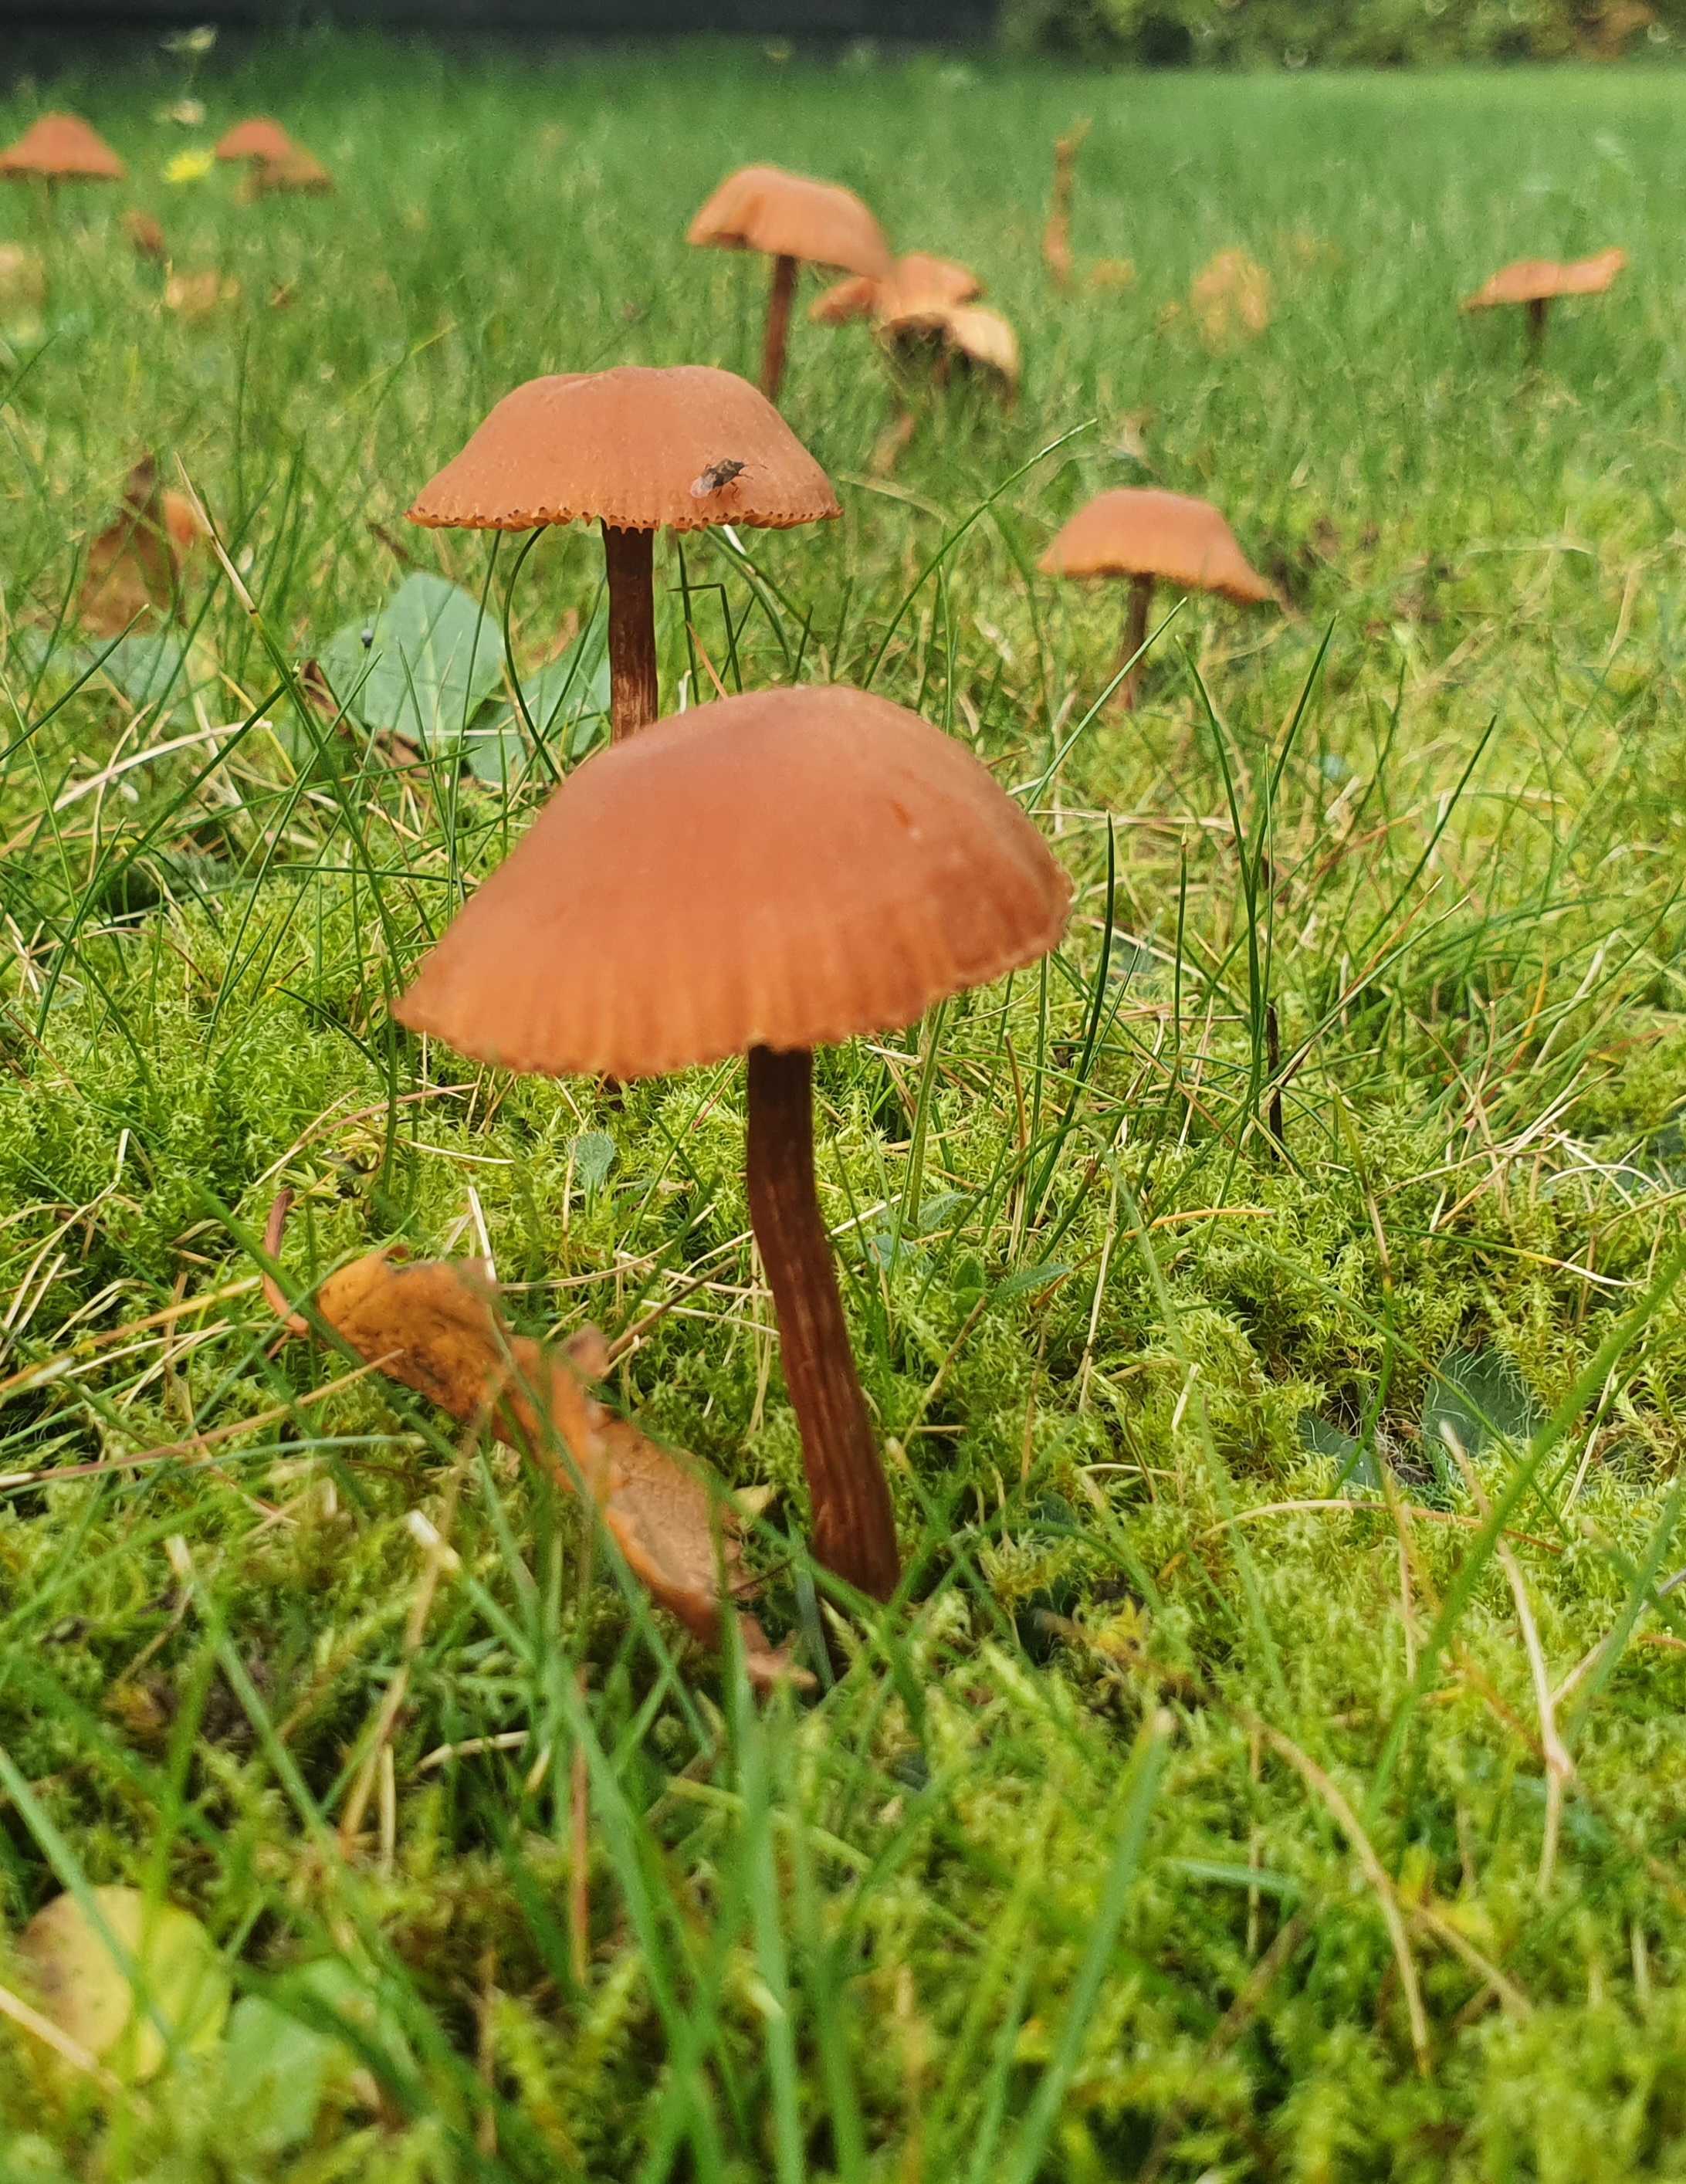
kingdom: Fungi
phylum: Basidiomycota
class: Agaricomycetes
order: Agaricales
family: Hydnangiaceae
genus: Laccaria
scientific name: Laccaria
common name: ametysthat
